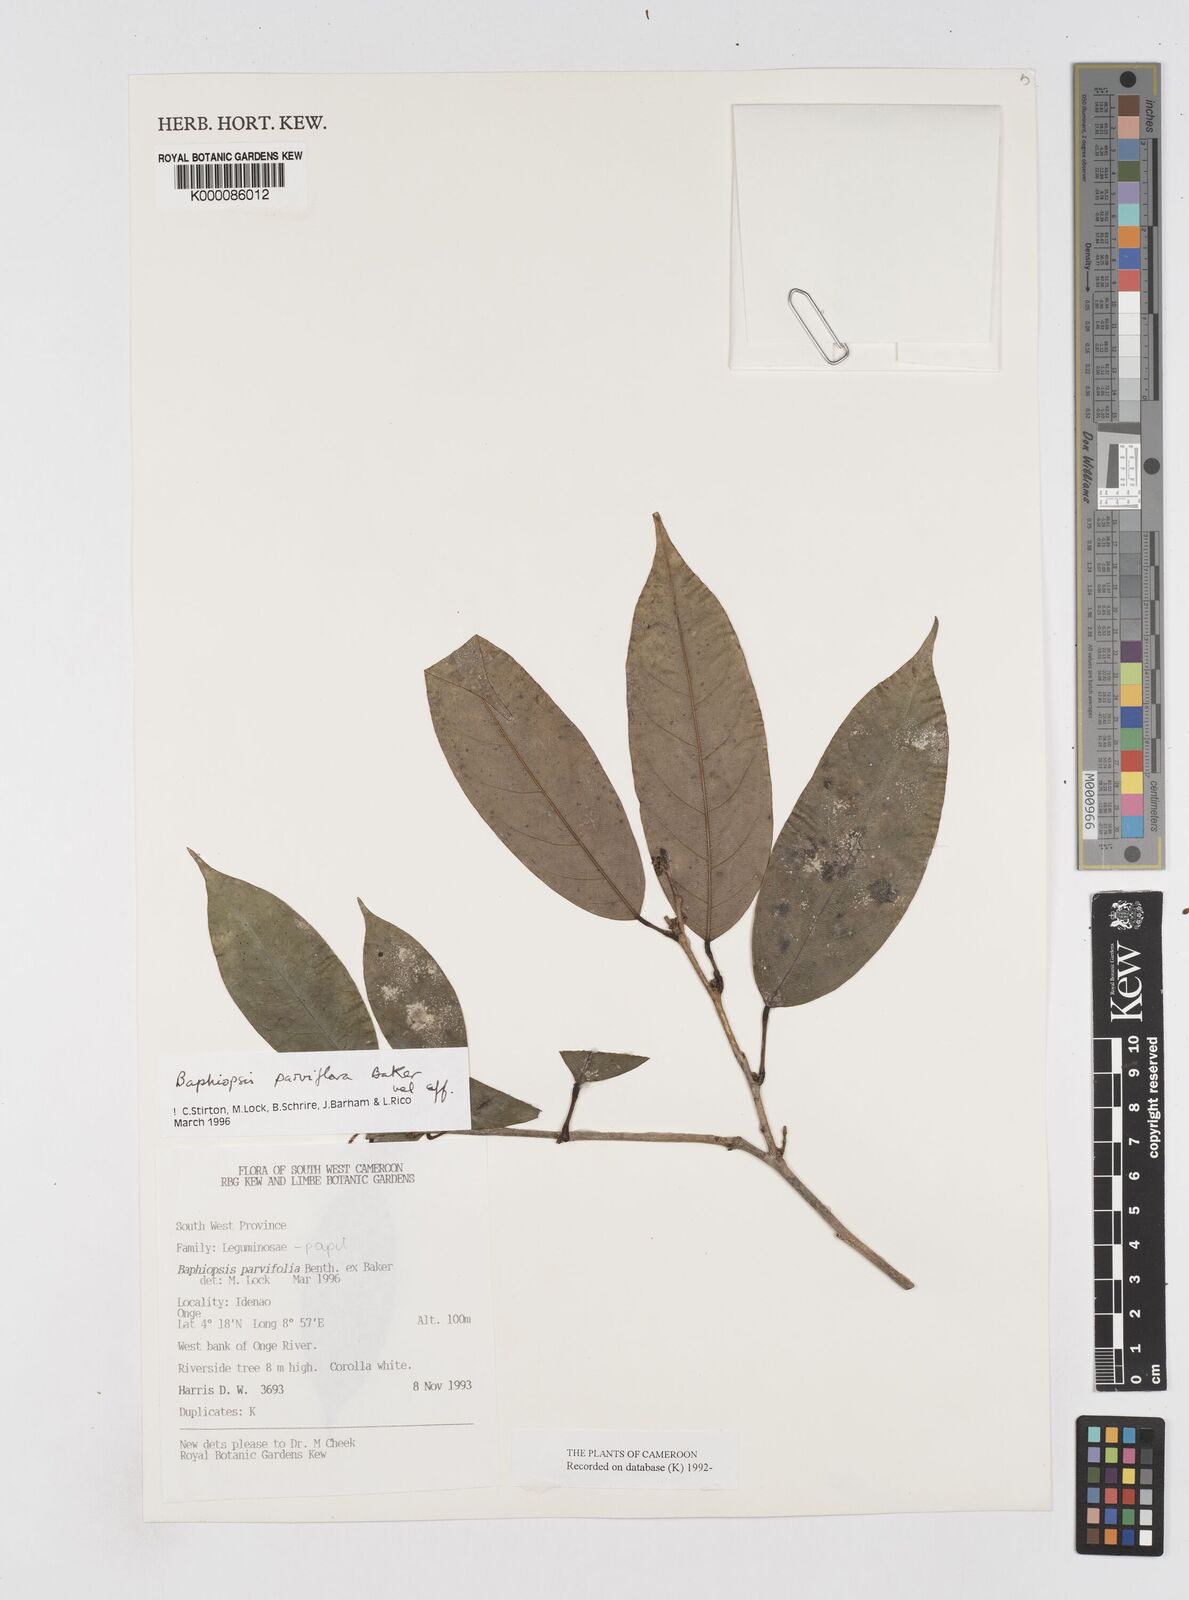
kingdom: Plantae
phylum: Tracheophyta
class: Magnoliopsida
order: Fabales
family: Fabaceae
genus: Baphiopsis
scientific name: Baphiopsis parviflora
